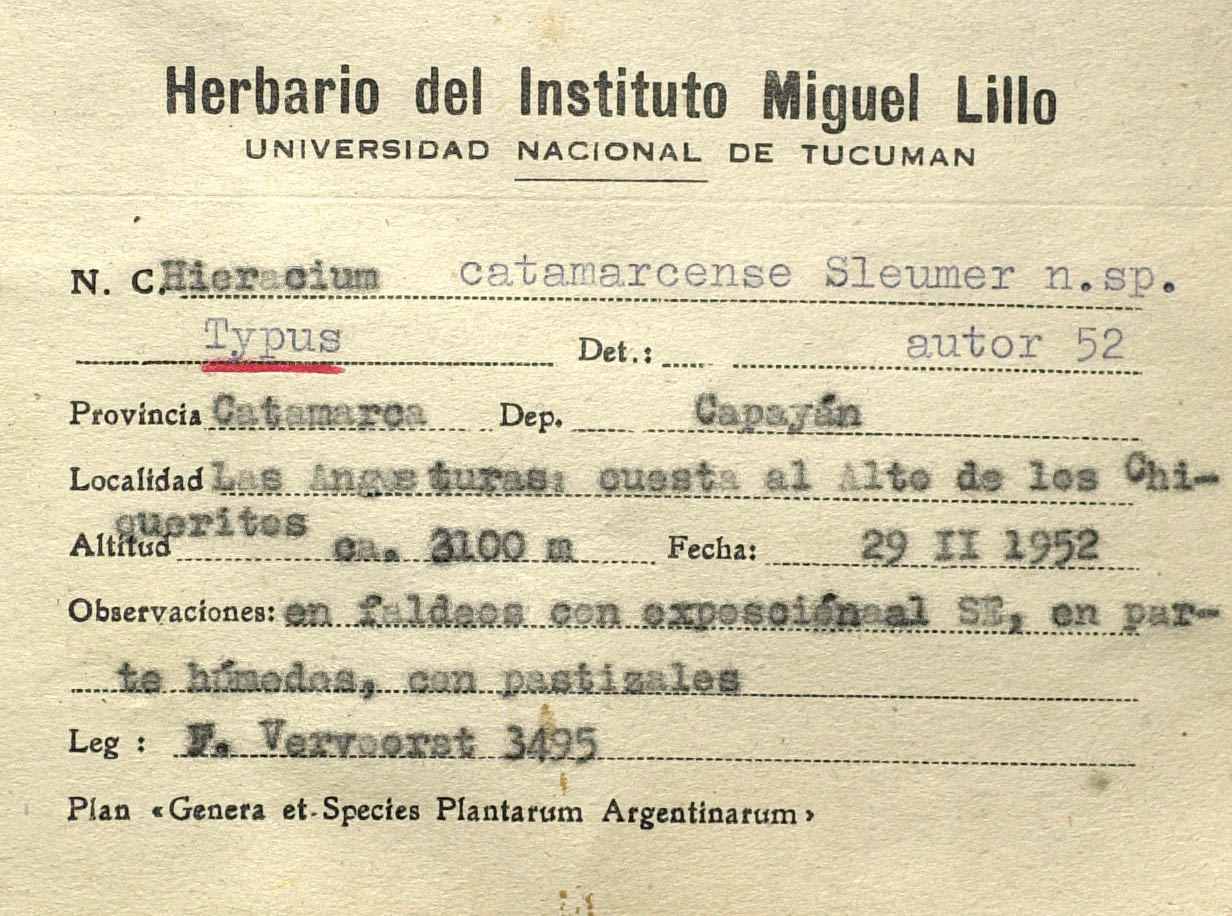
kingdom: Plantae
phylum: Tracheophyta
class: Magnoliopsida
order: Asterales
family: Asteraceae
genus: Hieracium
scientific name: Hieracium catamarcense
